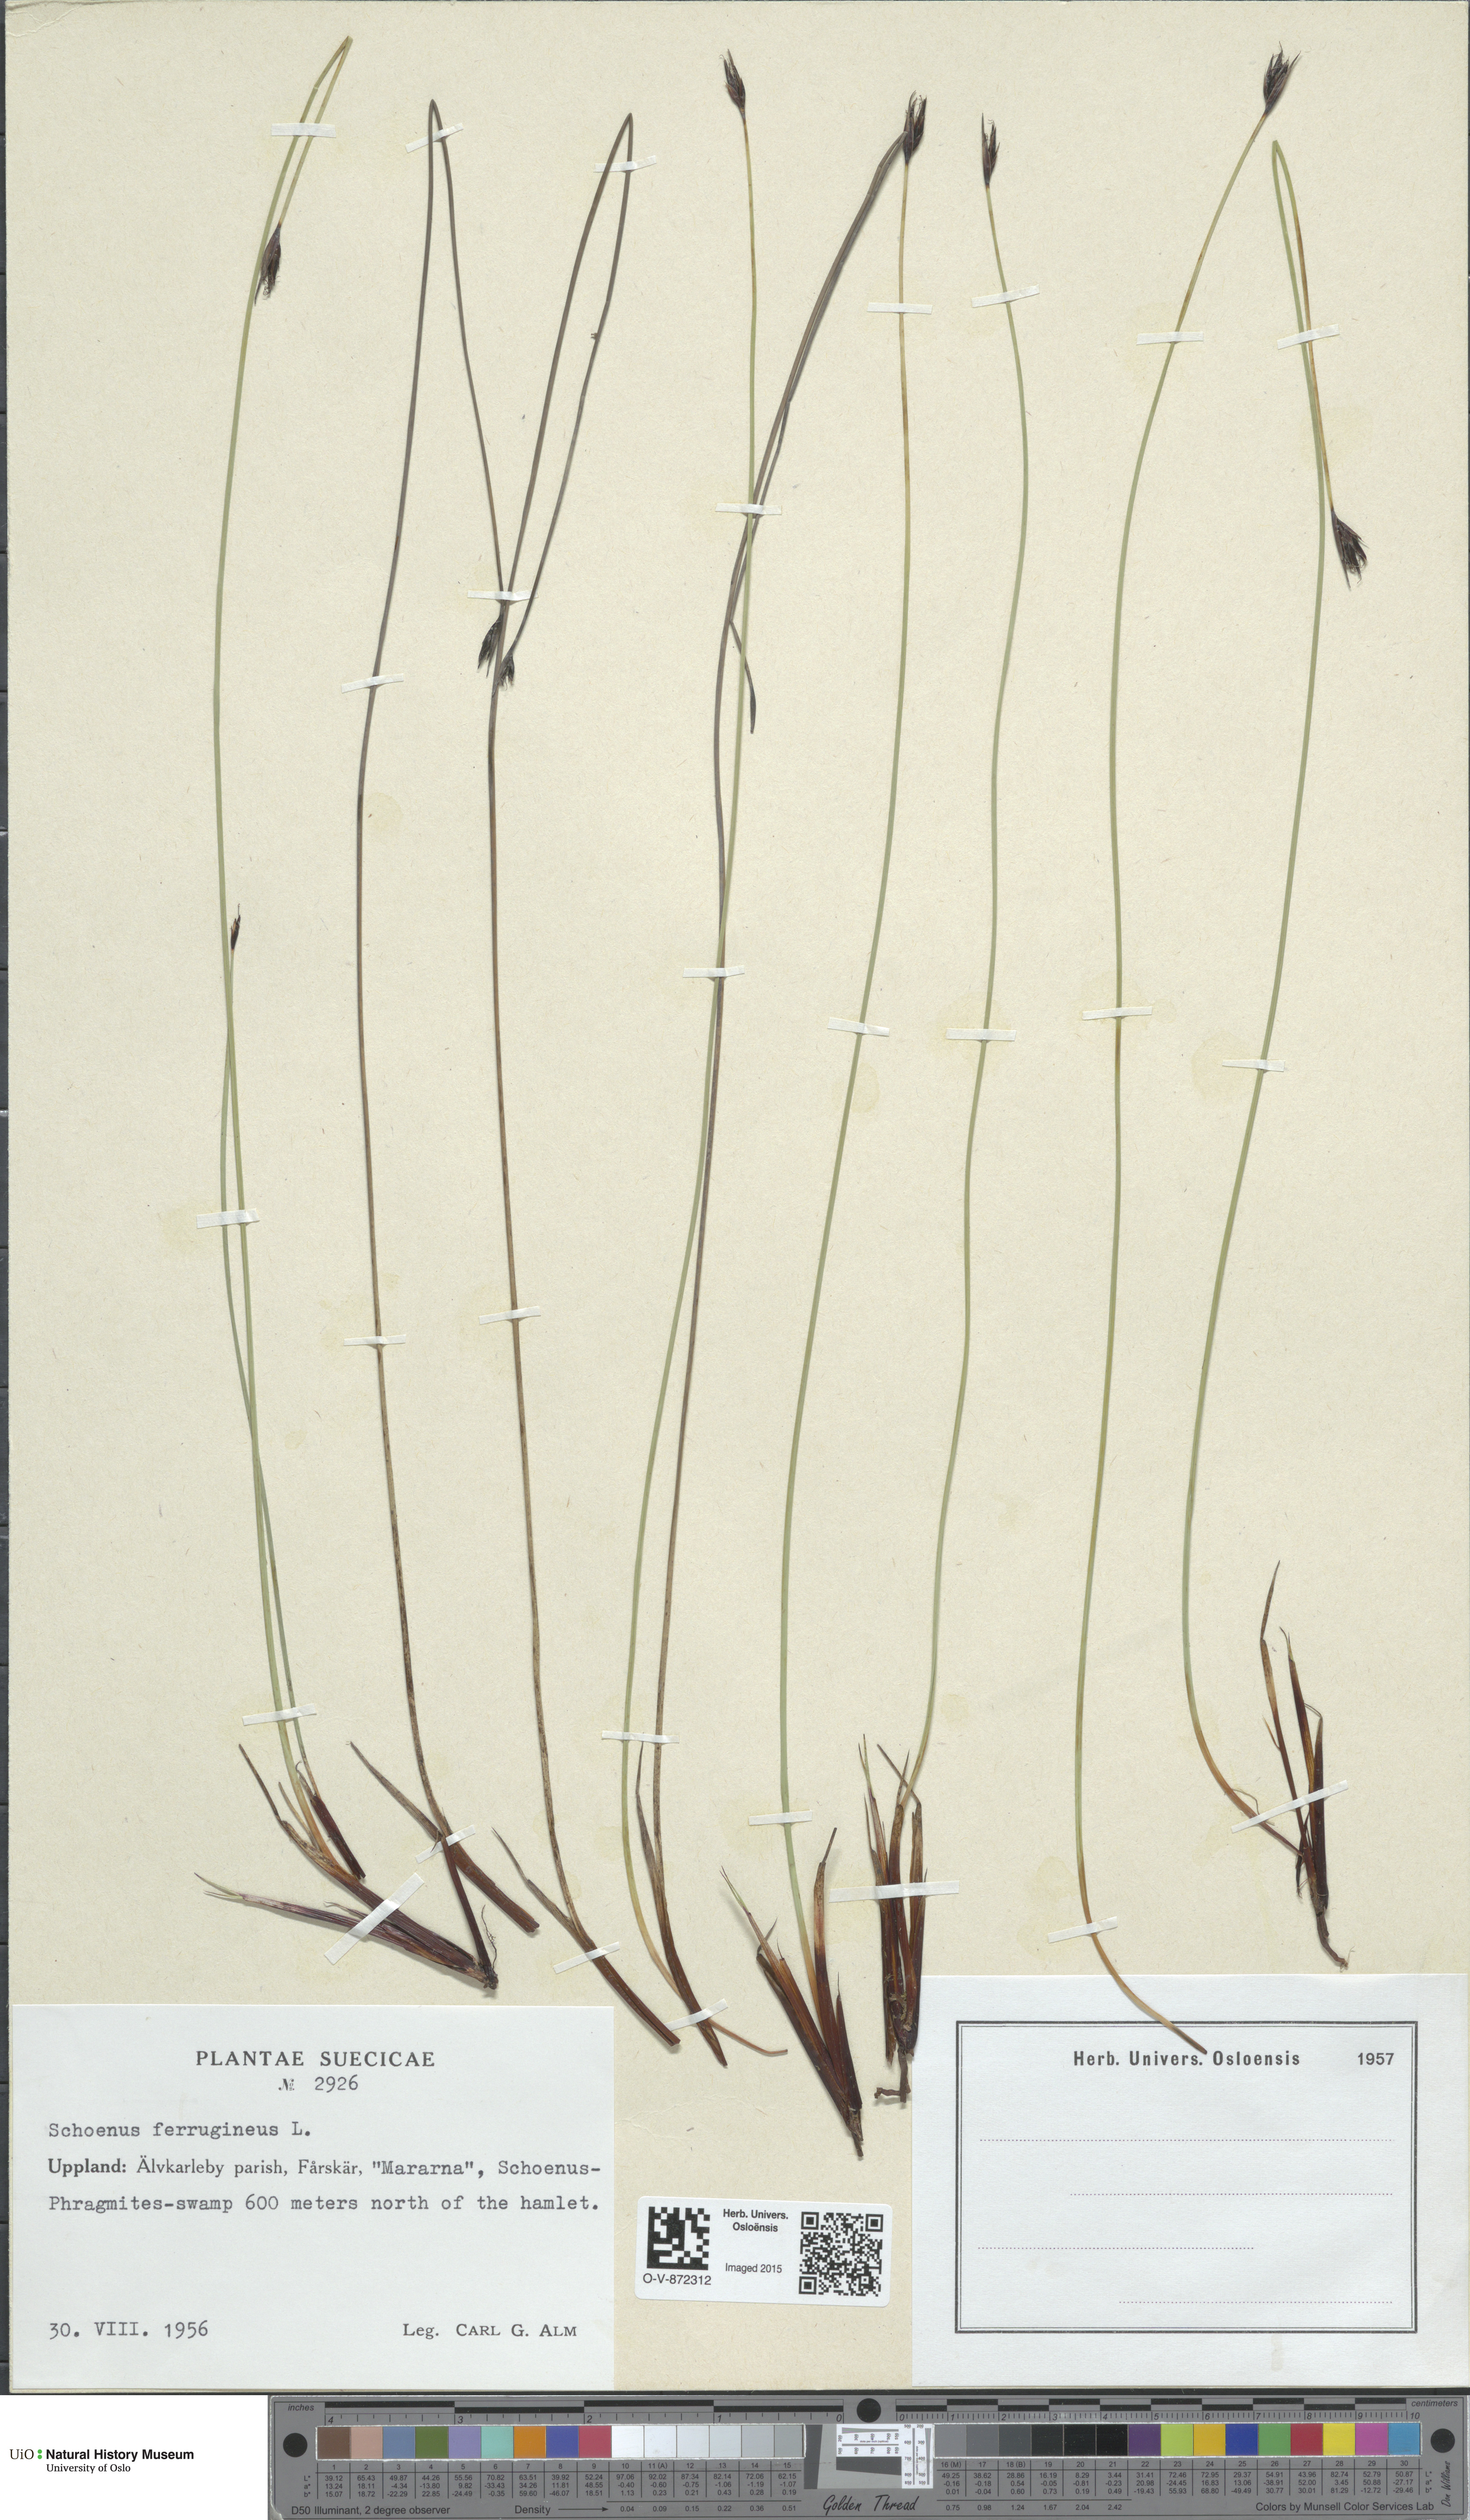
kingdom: Plantae
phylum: Tracheophyta
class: Liliopsida
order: Poales
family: Cyperaceae
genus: Schoenus
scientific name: Schoenus ferrugineus
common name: Brown bog-rush
